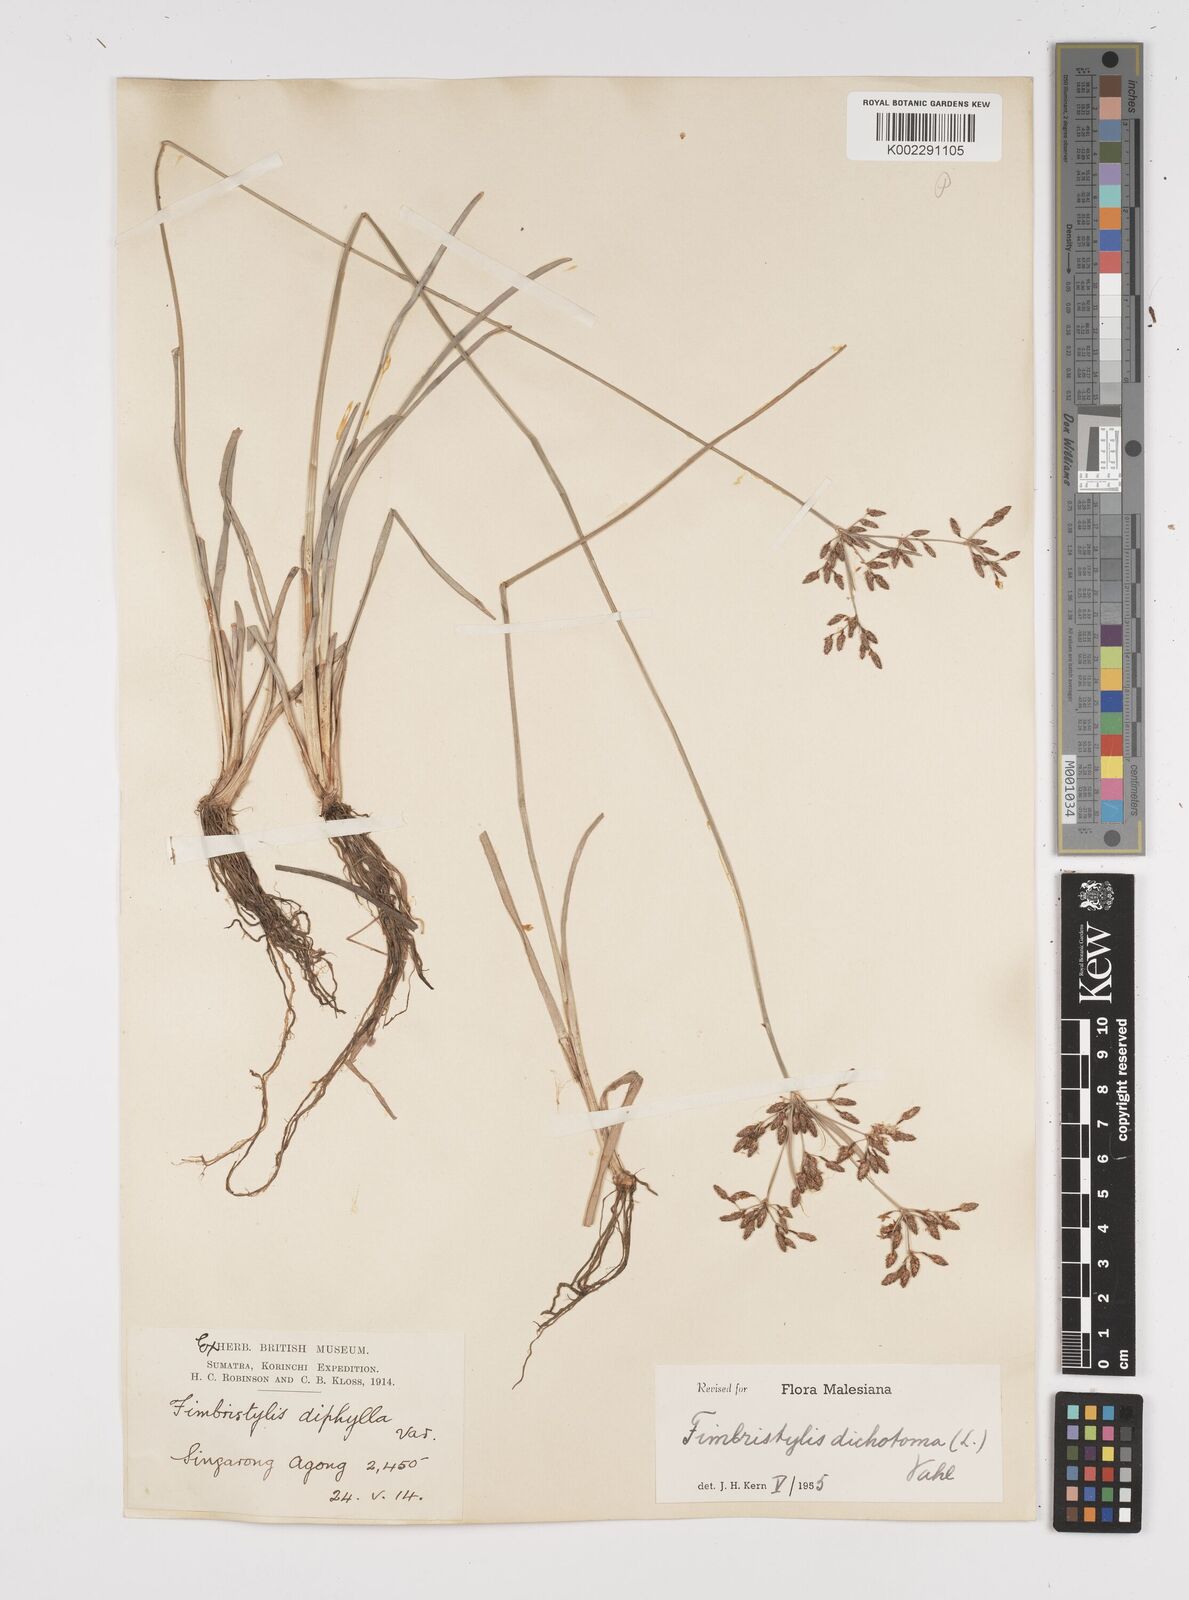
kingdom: Plantae
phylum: Tracheophyta
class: Liliopsida
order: Poales
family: Cyperaceae
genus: Fimbristylis
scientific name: Fimbristylis dichotoma
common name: Forked fimbry
